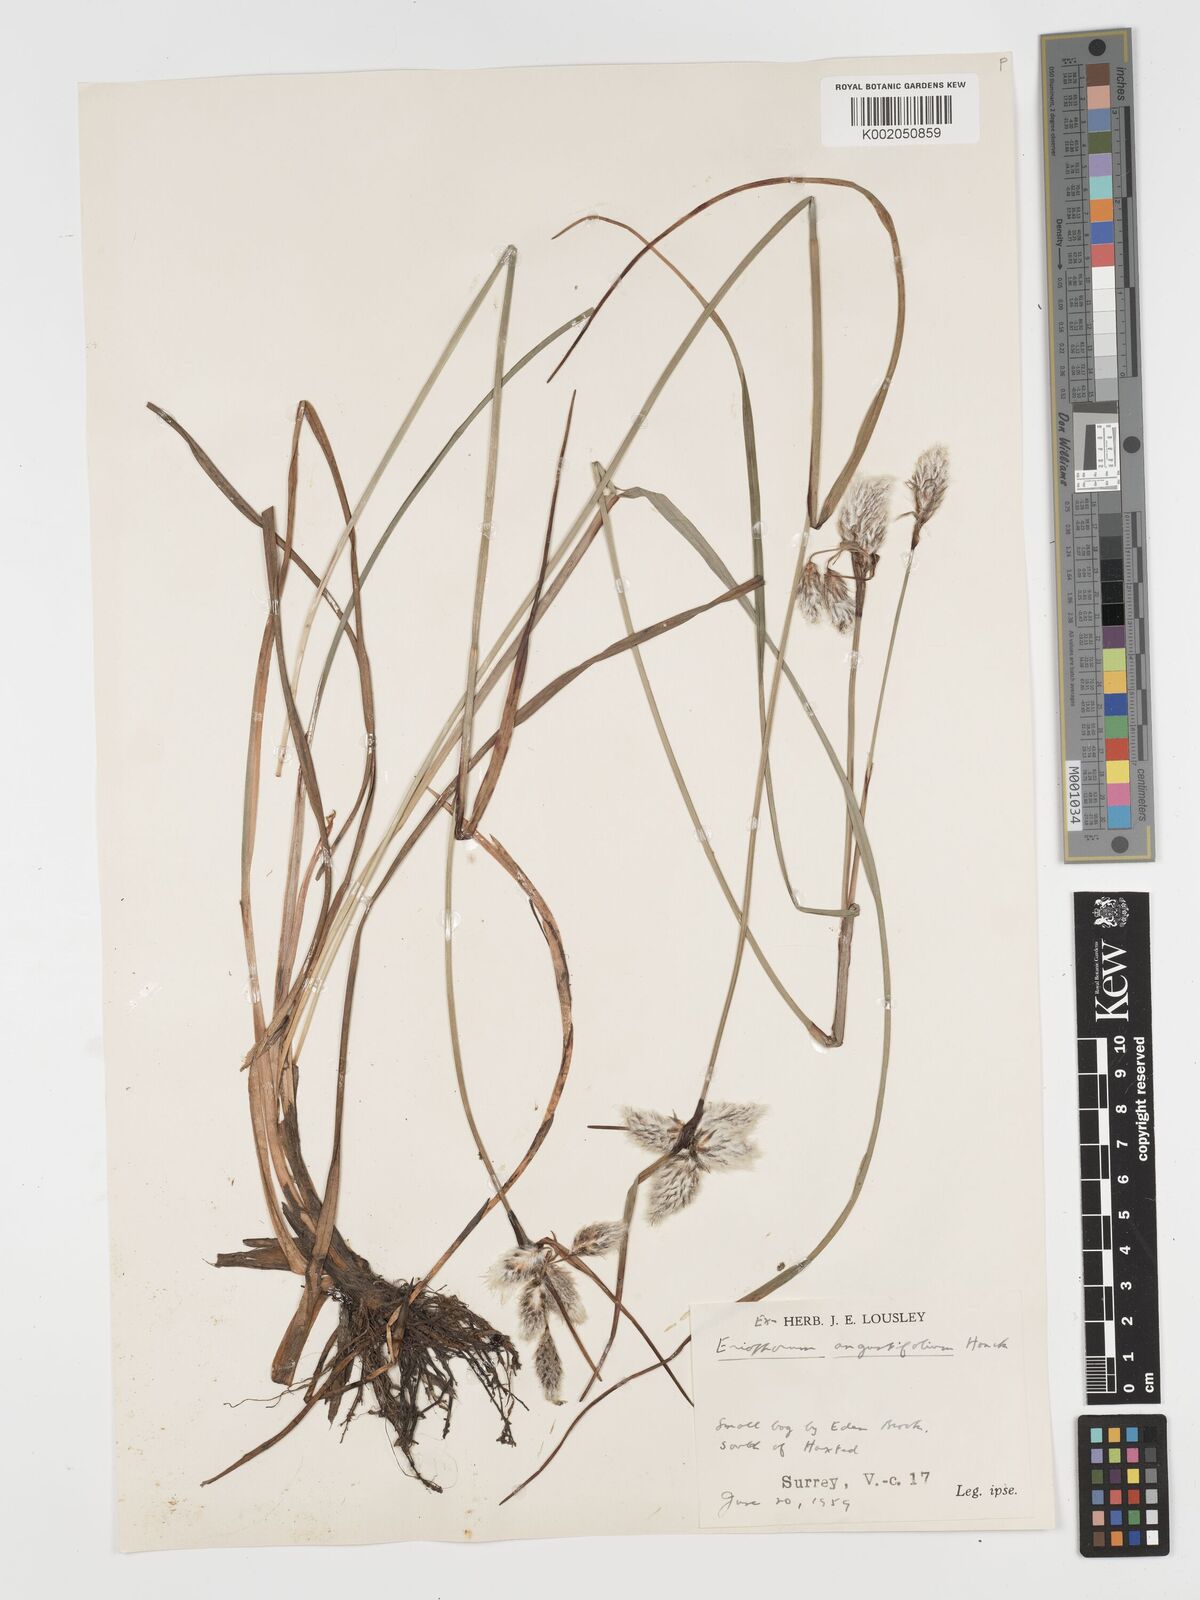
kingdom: Plantae
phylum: Tracheophyta
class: Liliopsida
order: Poales
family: Cyperaceae
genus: Eriophorum
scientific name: Eriophorum angustifolium
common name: Common cottongrass
